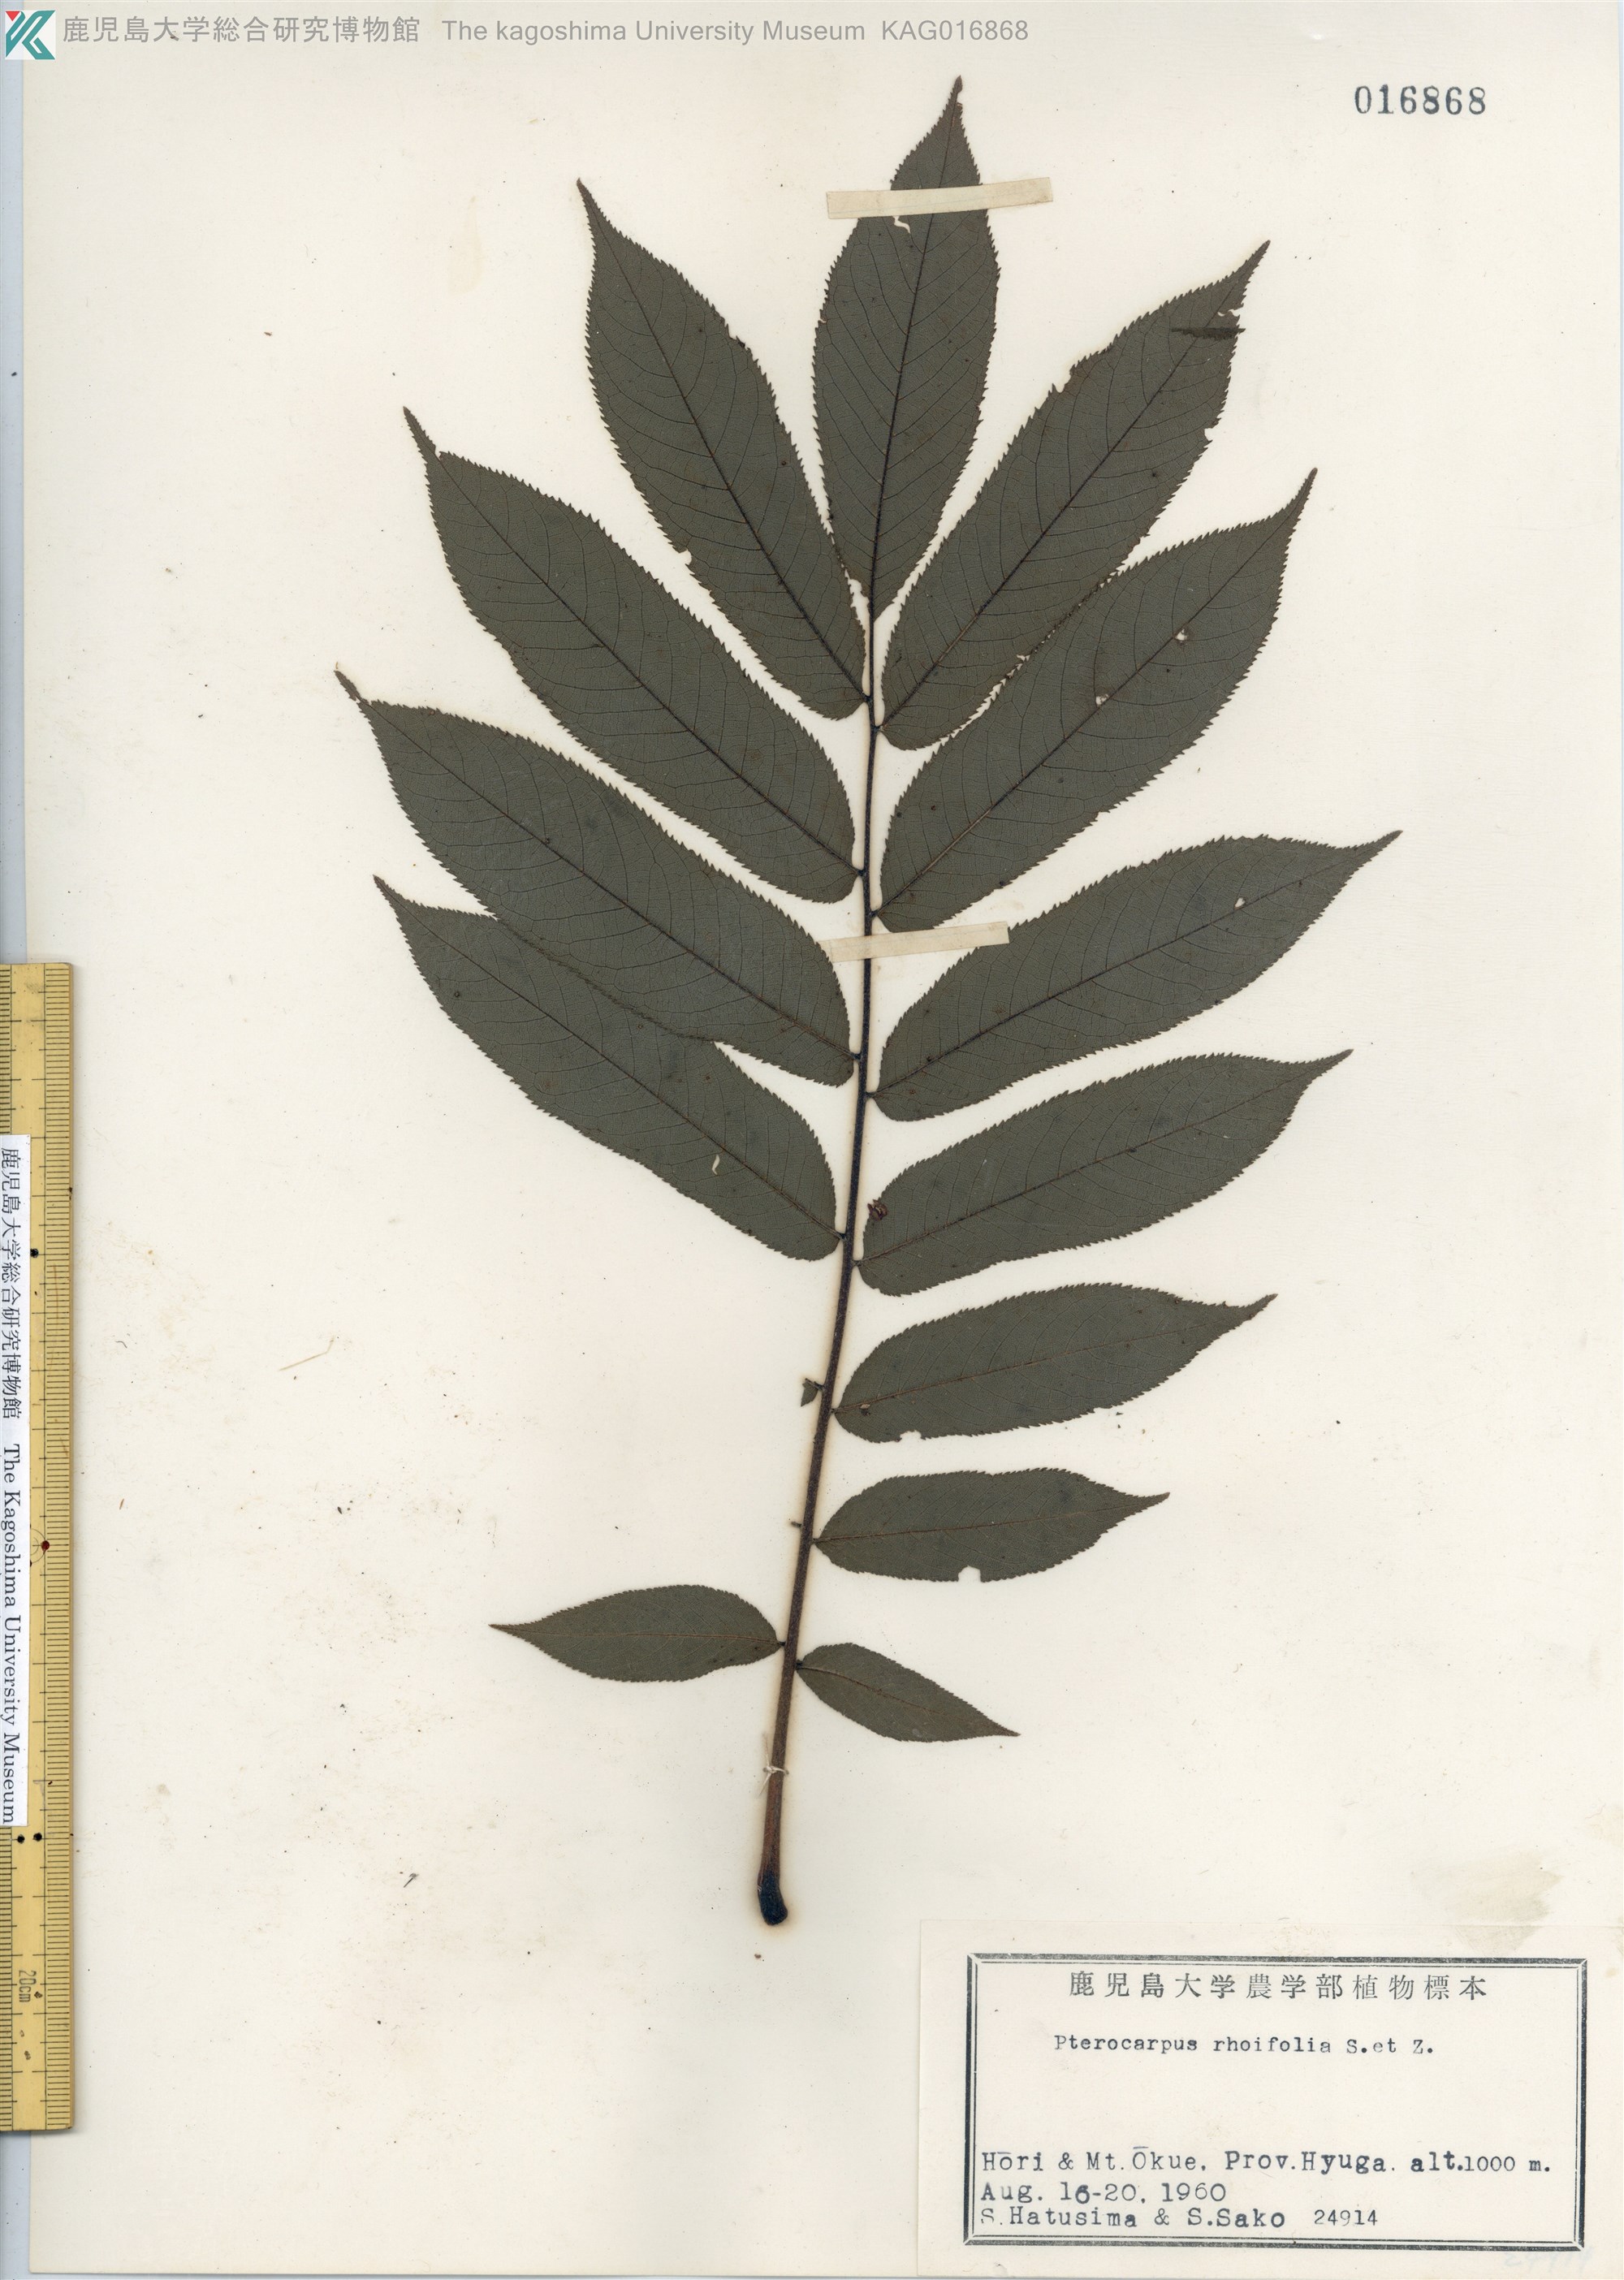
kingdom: Plantae
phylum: Tracheophyta
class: Magnoliopsida
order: Fagales
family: Juglandaceae
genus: Pterocarya
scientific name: Pterocarya rhoifolia
